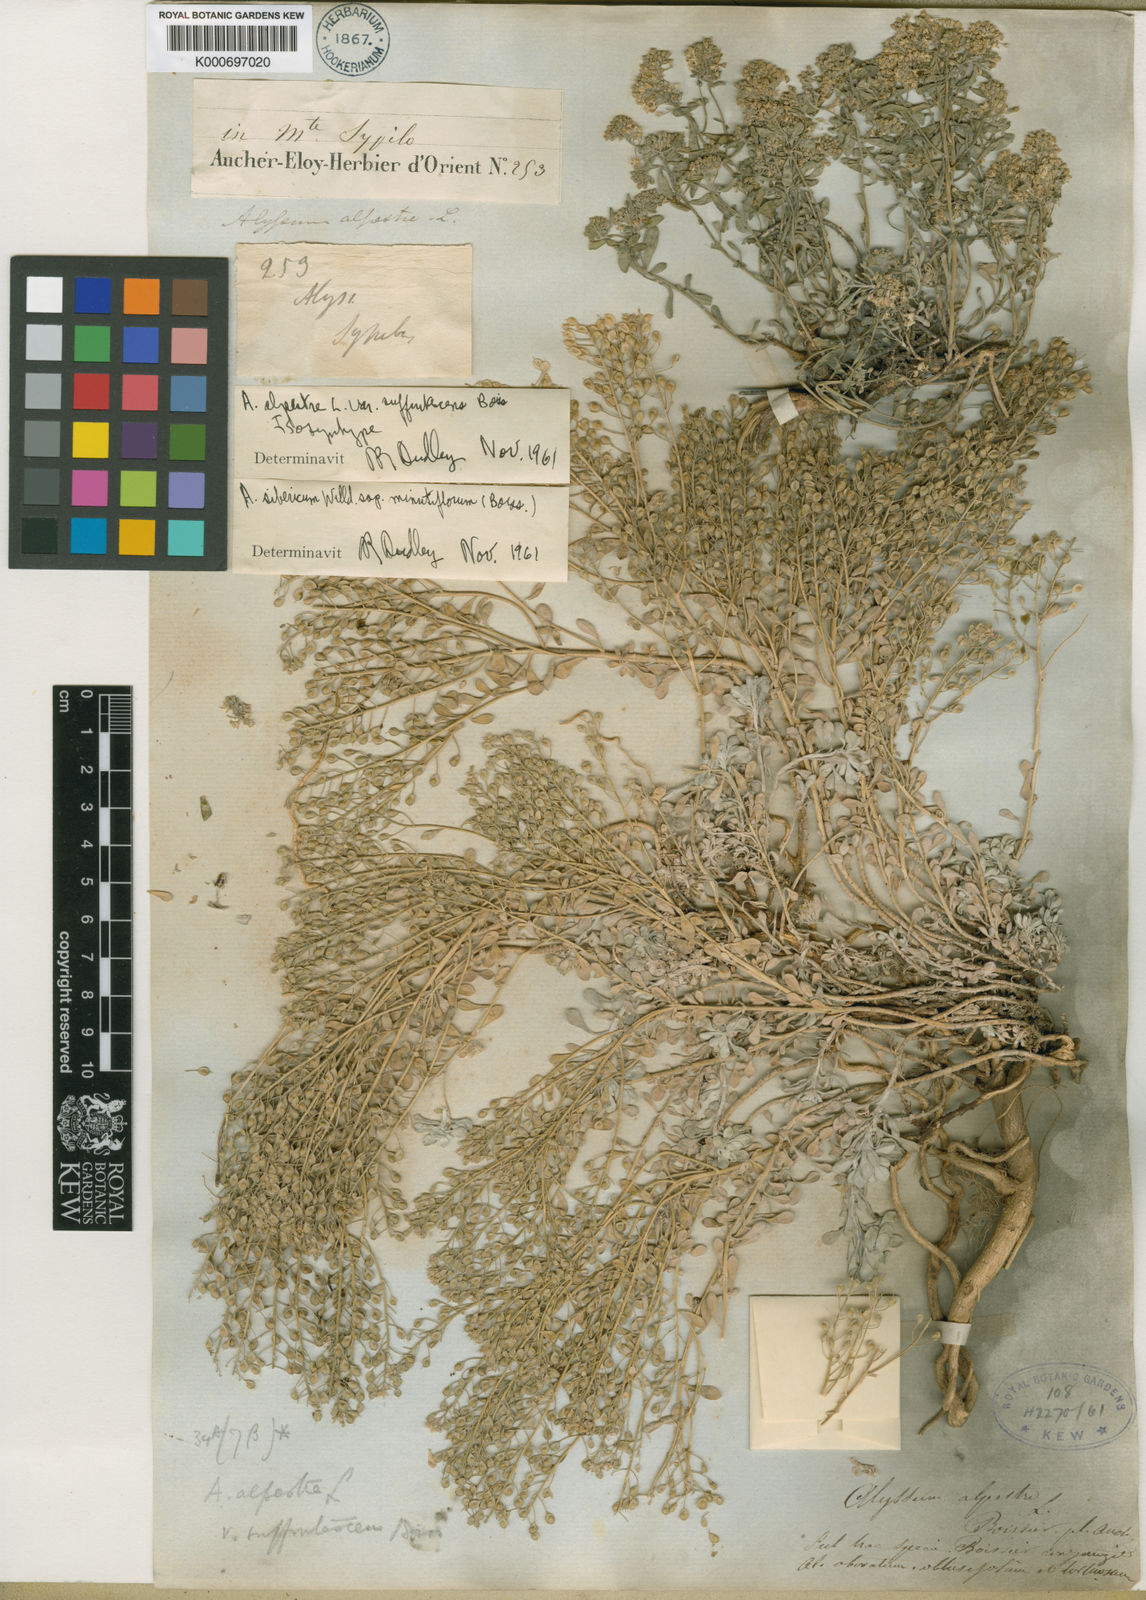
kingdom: Plantae
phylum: Tracheophyta
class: Magnoliopsida
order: Brassicales
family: Brassicaceae
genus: Odontarrhena
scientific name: Odontarrhena sibirica
